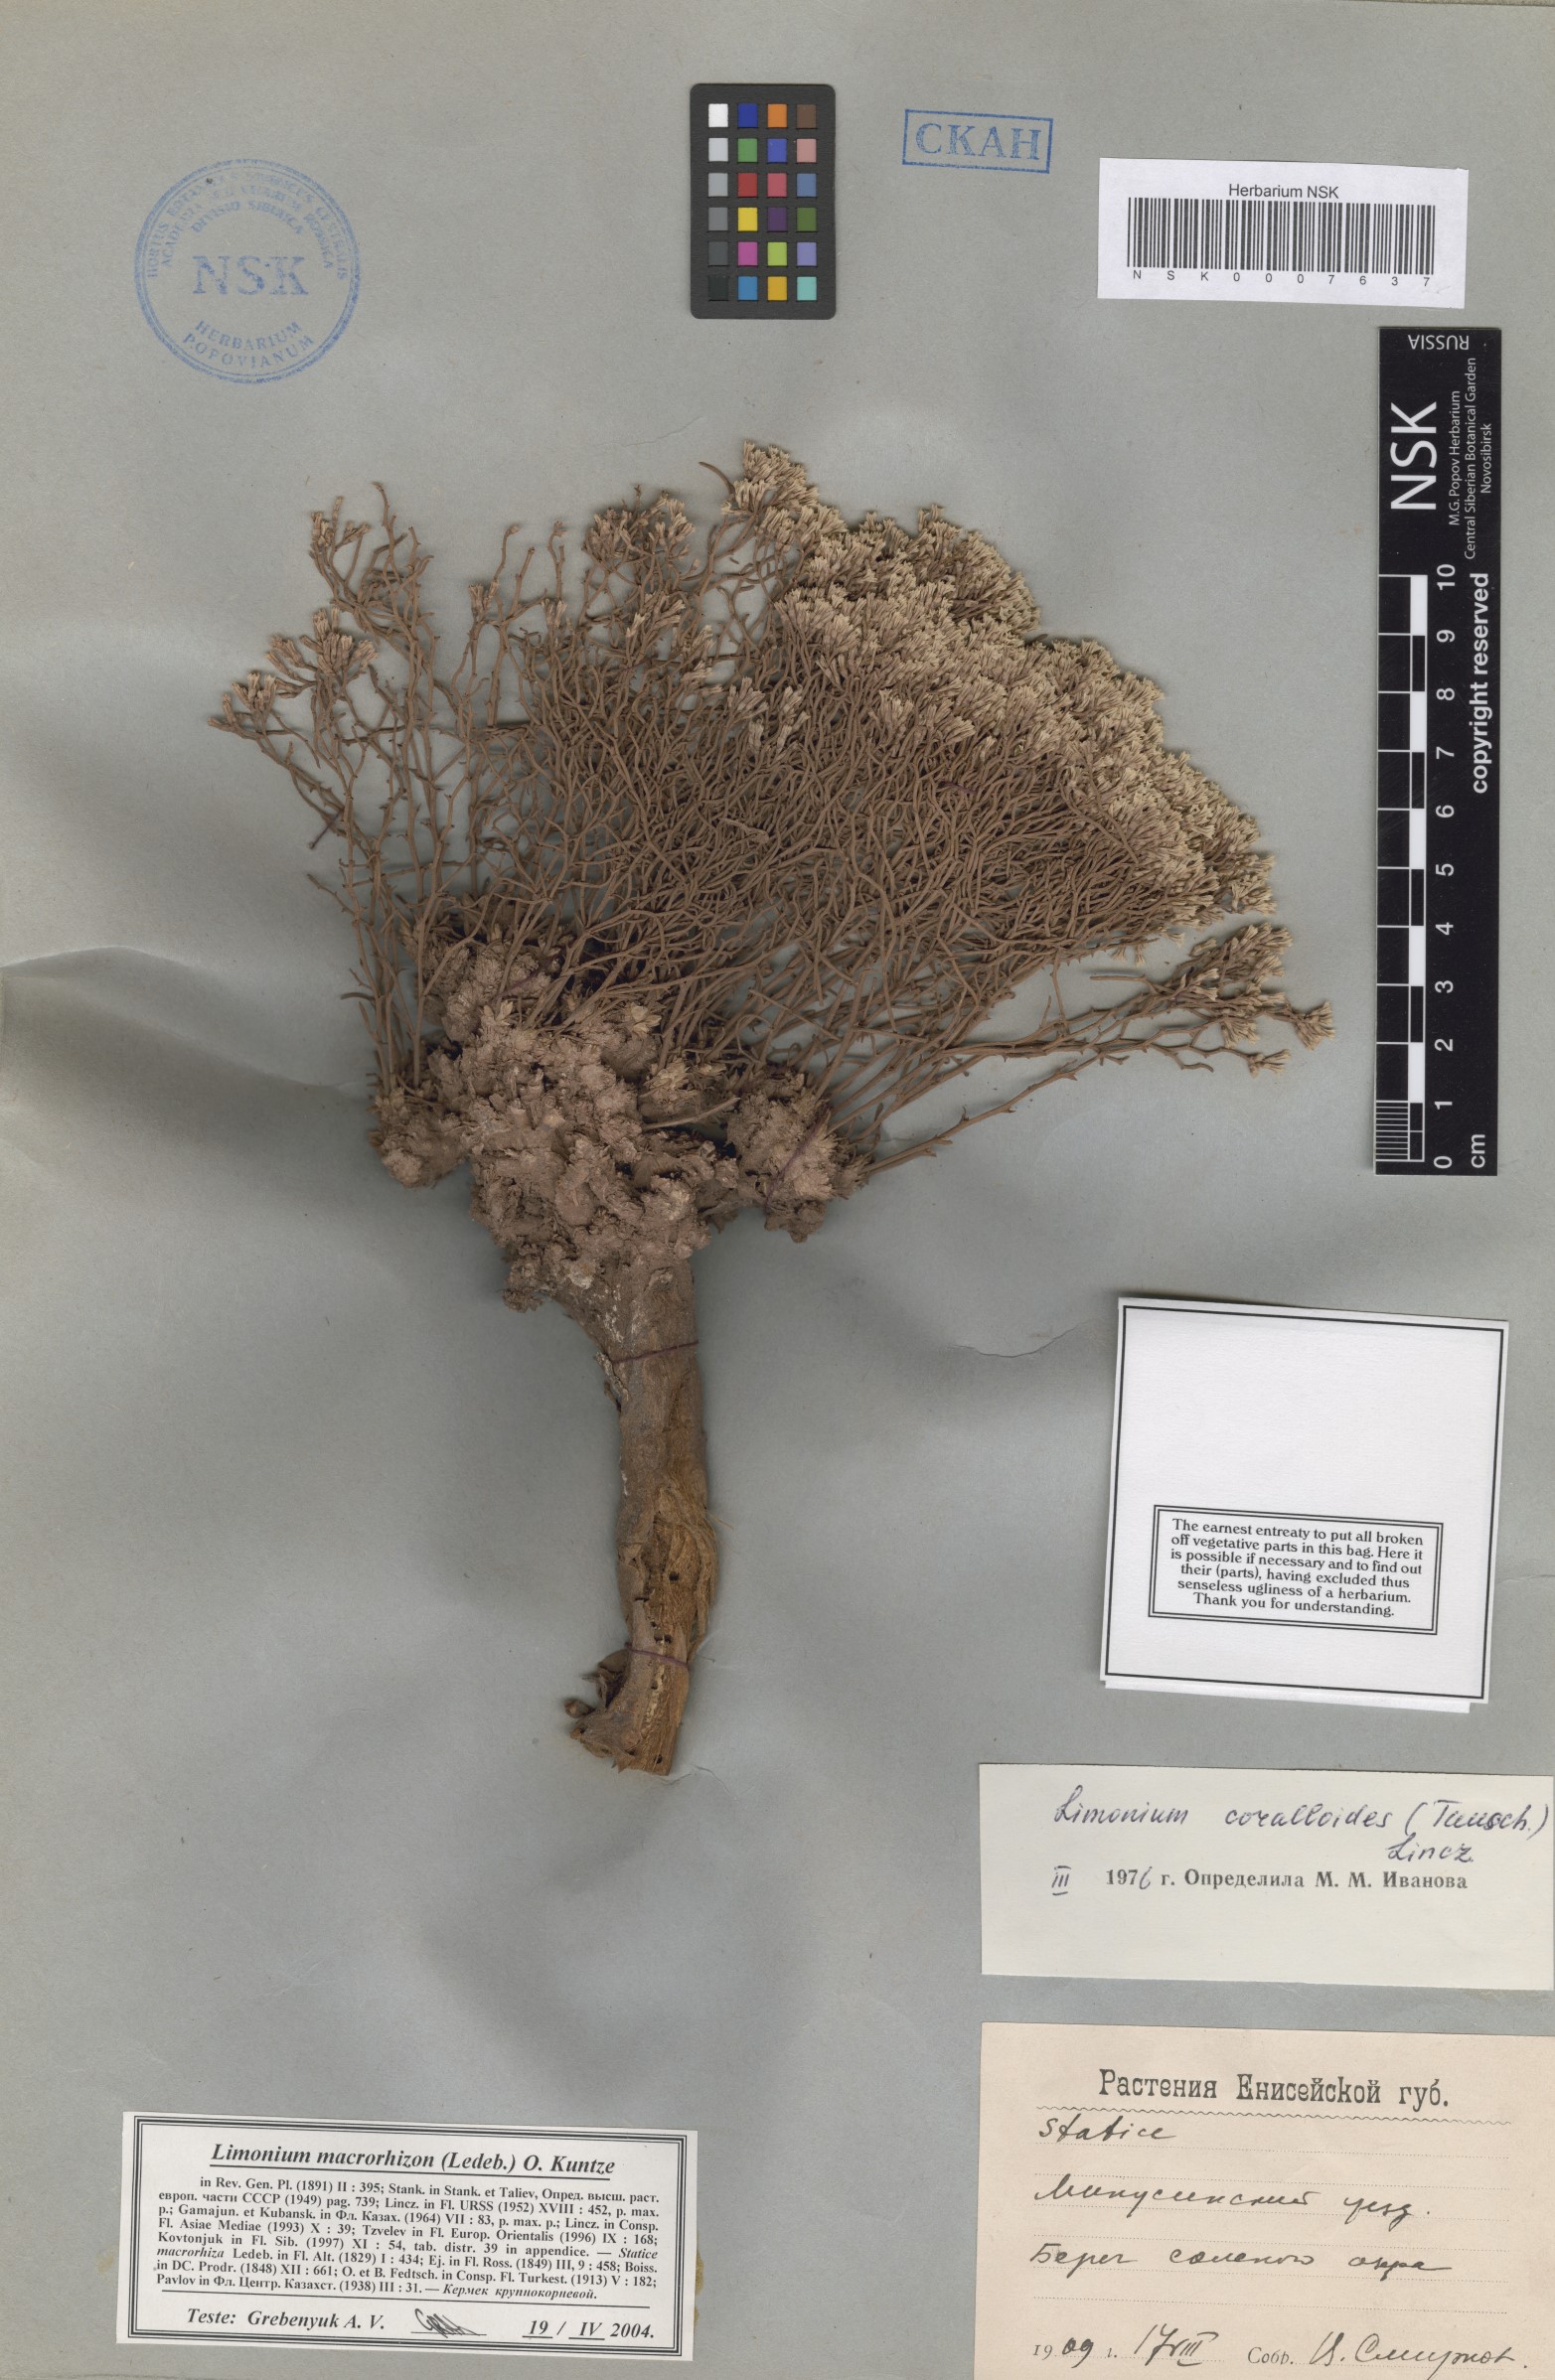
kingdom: Plantae
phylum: Tracheophyta
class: Magnoliopsida
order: Caryophyllales
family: Plumbaginaceae
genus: Limonium
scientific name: Limonium macrorhizum
